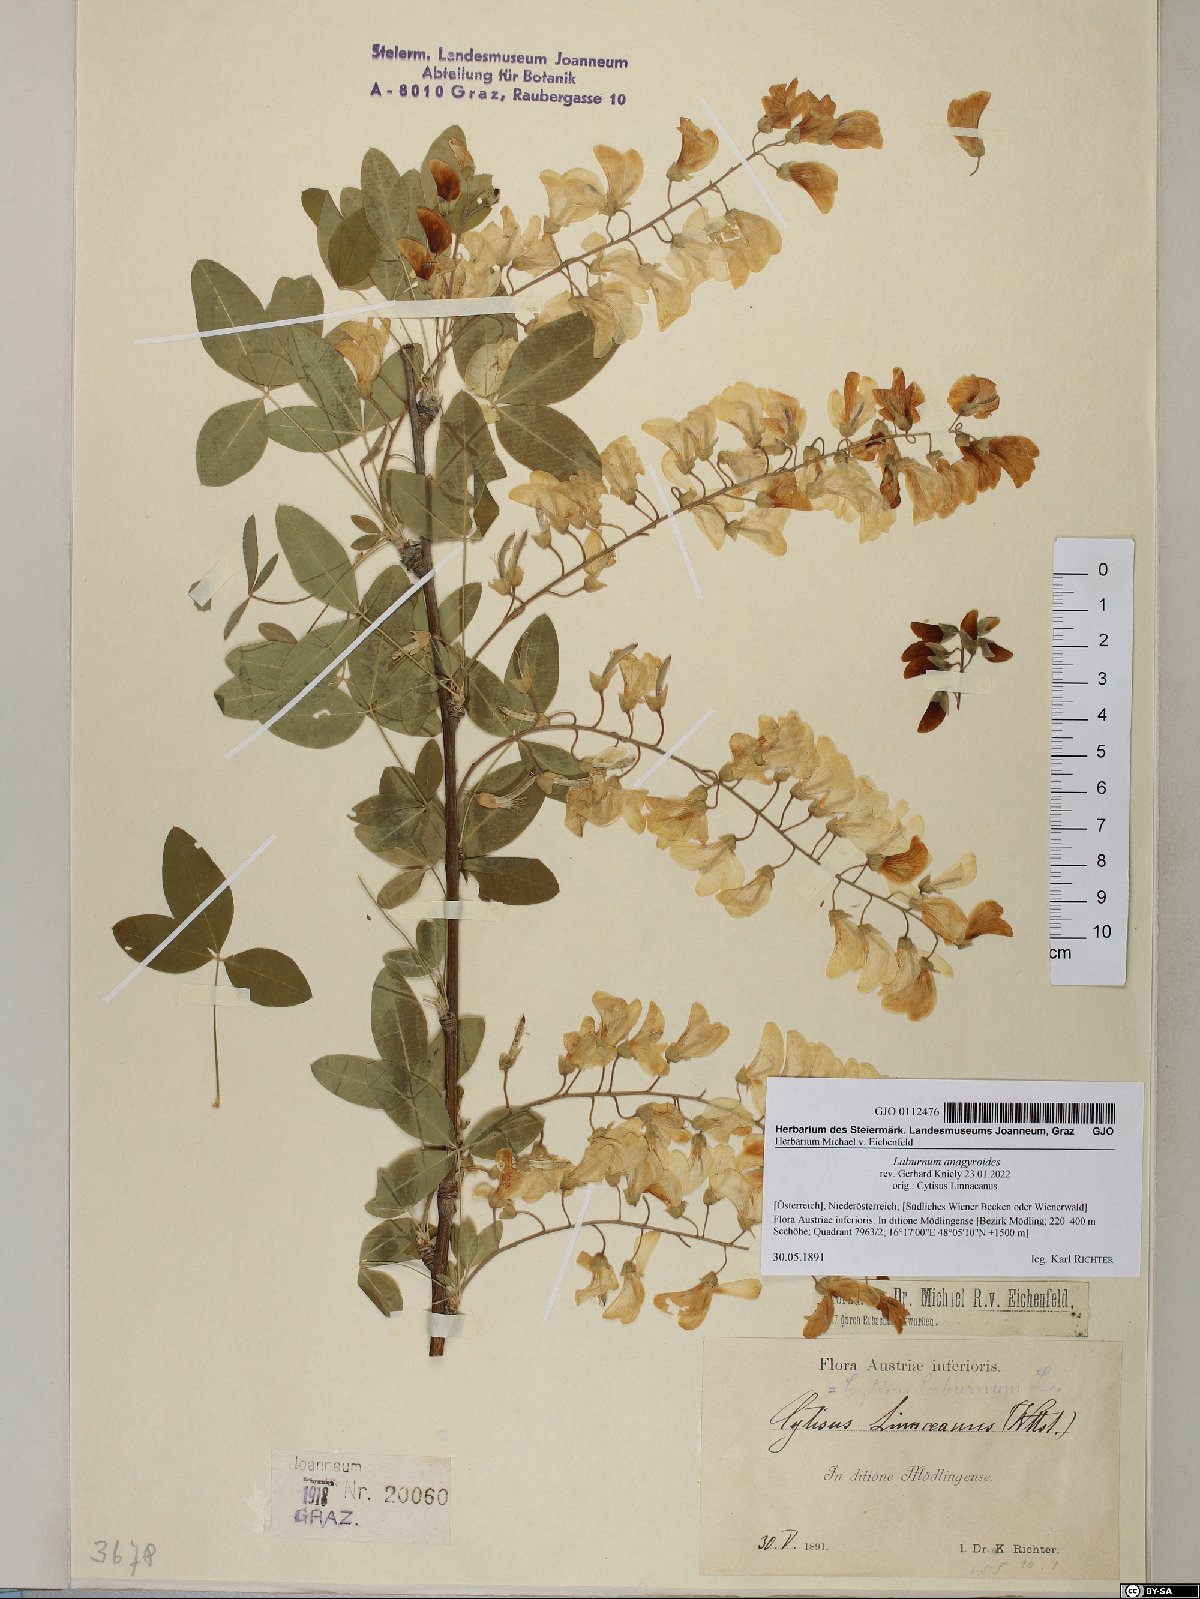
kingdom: Plantae
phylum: Tracheophyta
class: Magnoliopsida
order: Fabales
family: Fabaceae
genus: Laburnum
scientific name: Laburnum anagyroides
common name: Laburnum
